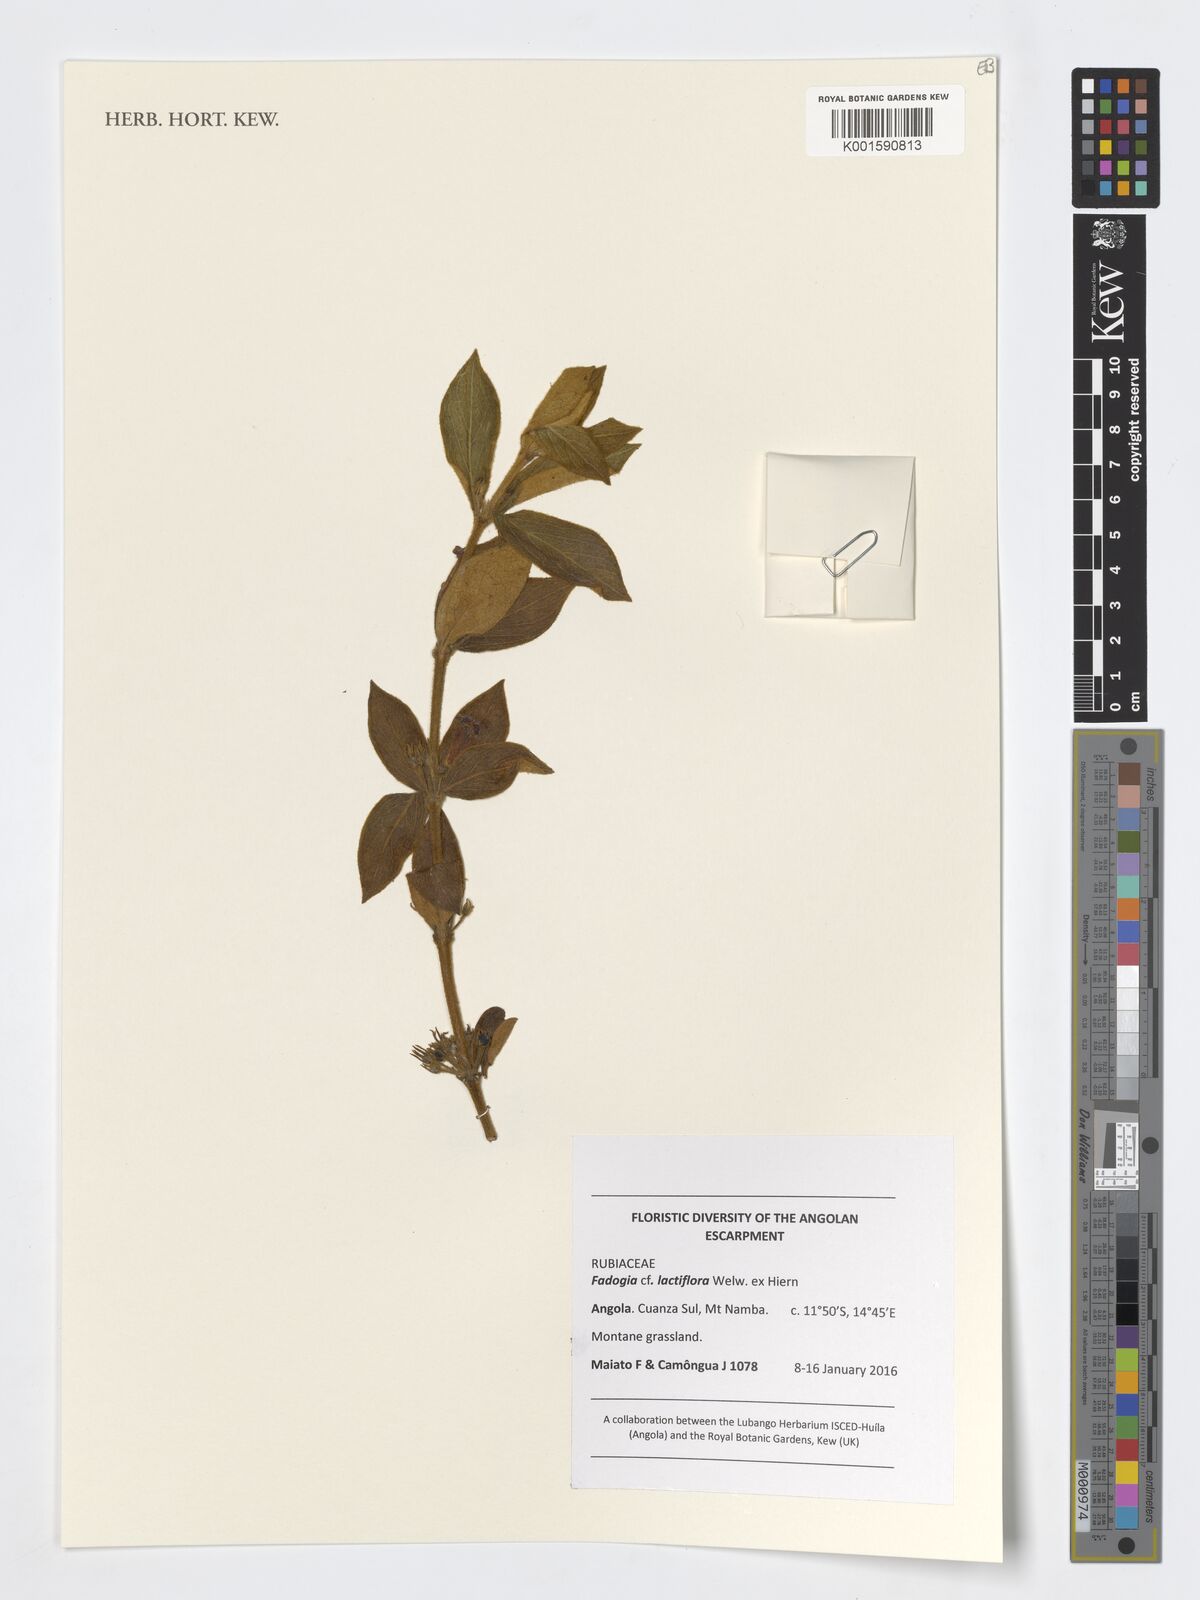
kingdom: Plantae
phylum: Tracheophyta
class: Magnoliopsida
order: Gentianales
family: Rubiaceae
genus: Fadogia
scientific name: Fadogia lactiflora
